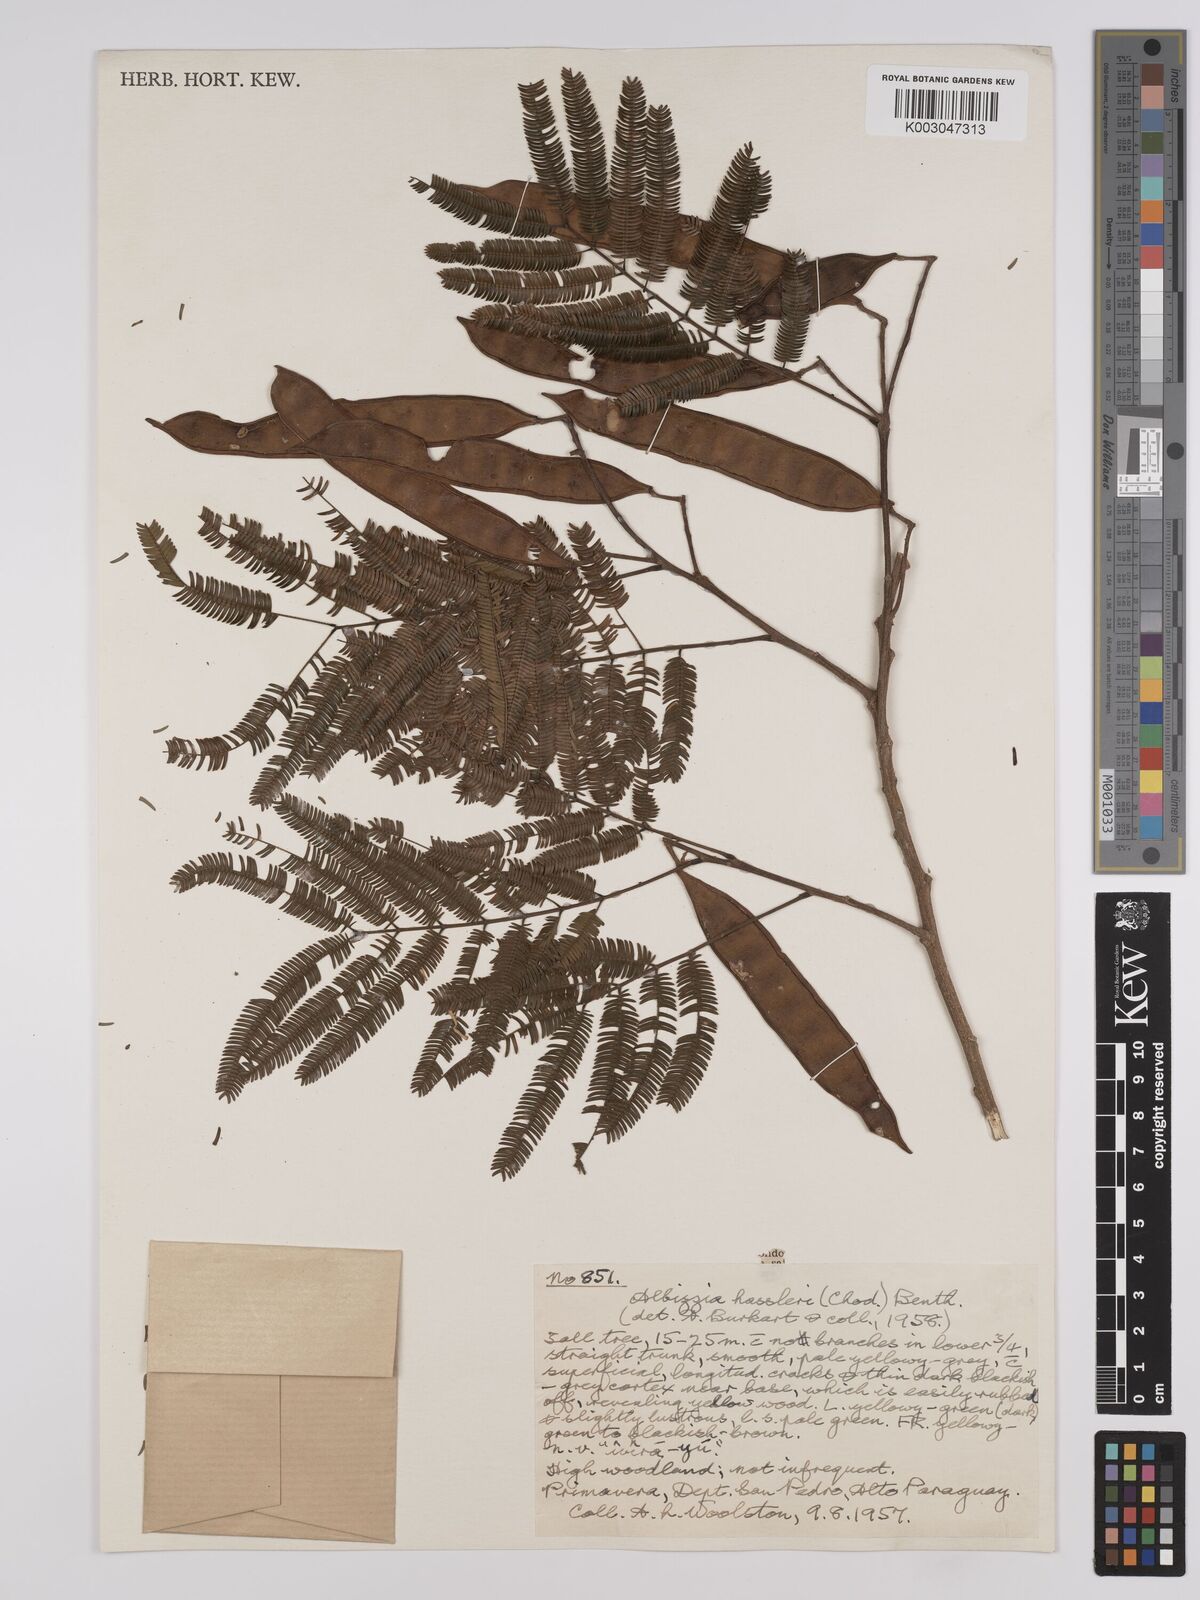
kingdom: Plantae
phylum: Tracheophyta
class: Magnoliopsida
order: Fabales
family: Fabaceae
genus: Albizia
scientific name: Albizia niopoides
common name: Silk tree
